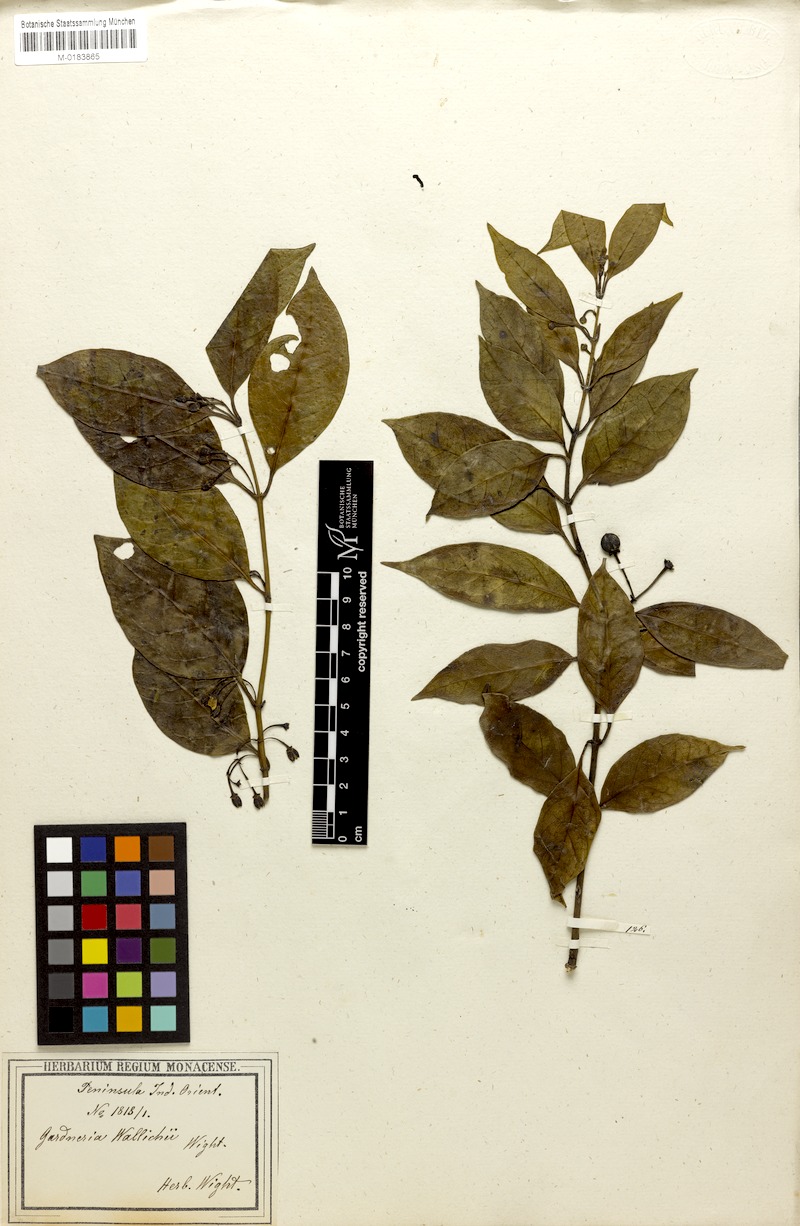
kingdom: Plantae
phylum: Tracheophyta
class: Magnoliopsida
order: Gentianales
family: Loganiaceae
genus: Gardneria
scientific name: Gardneria ovata
